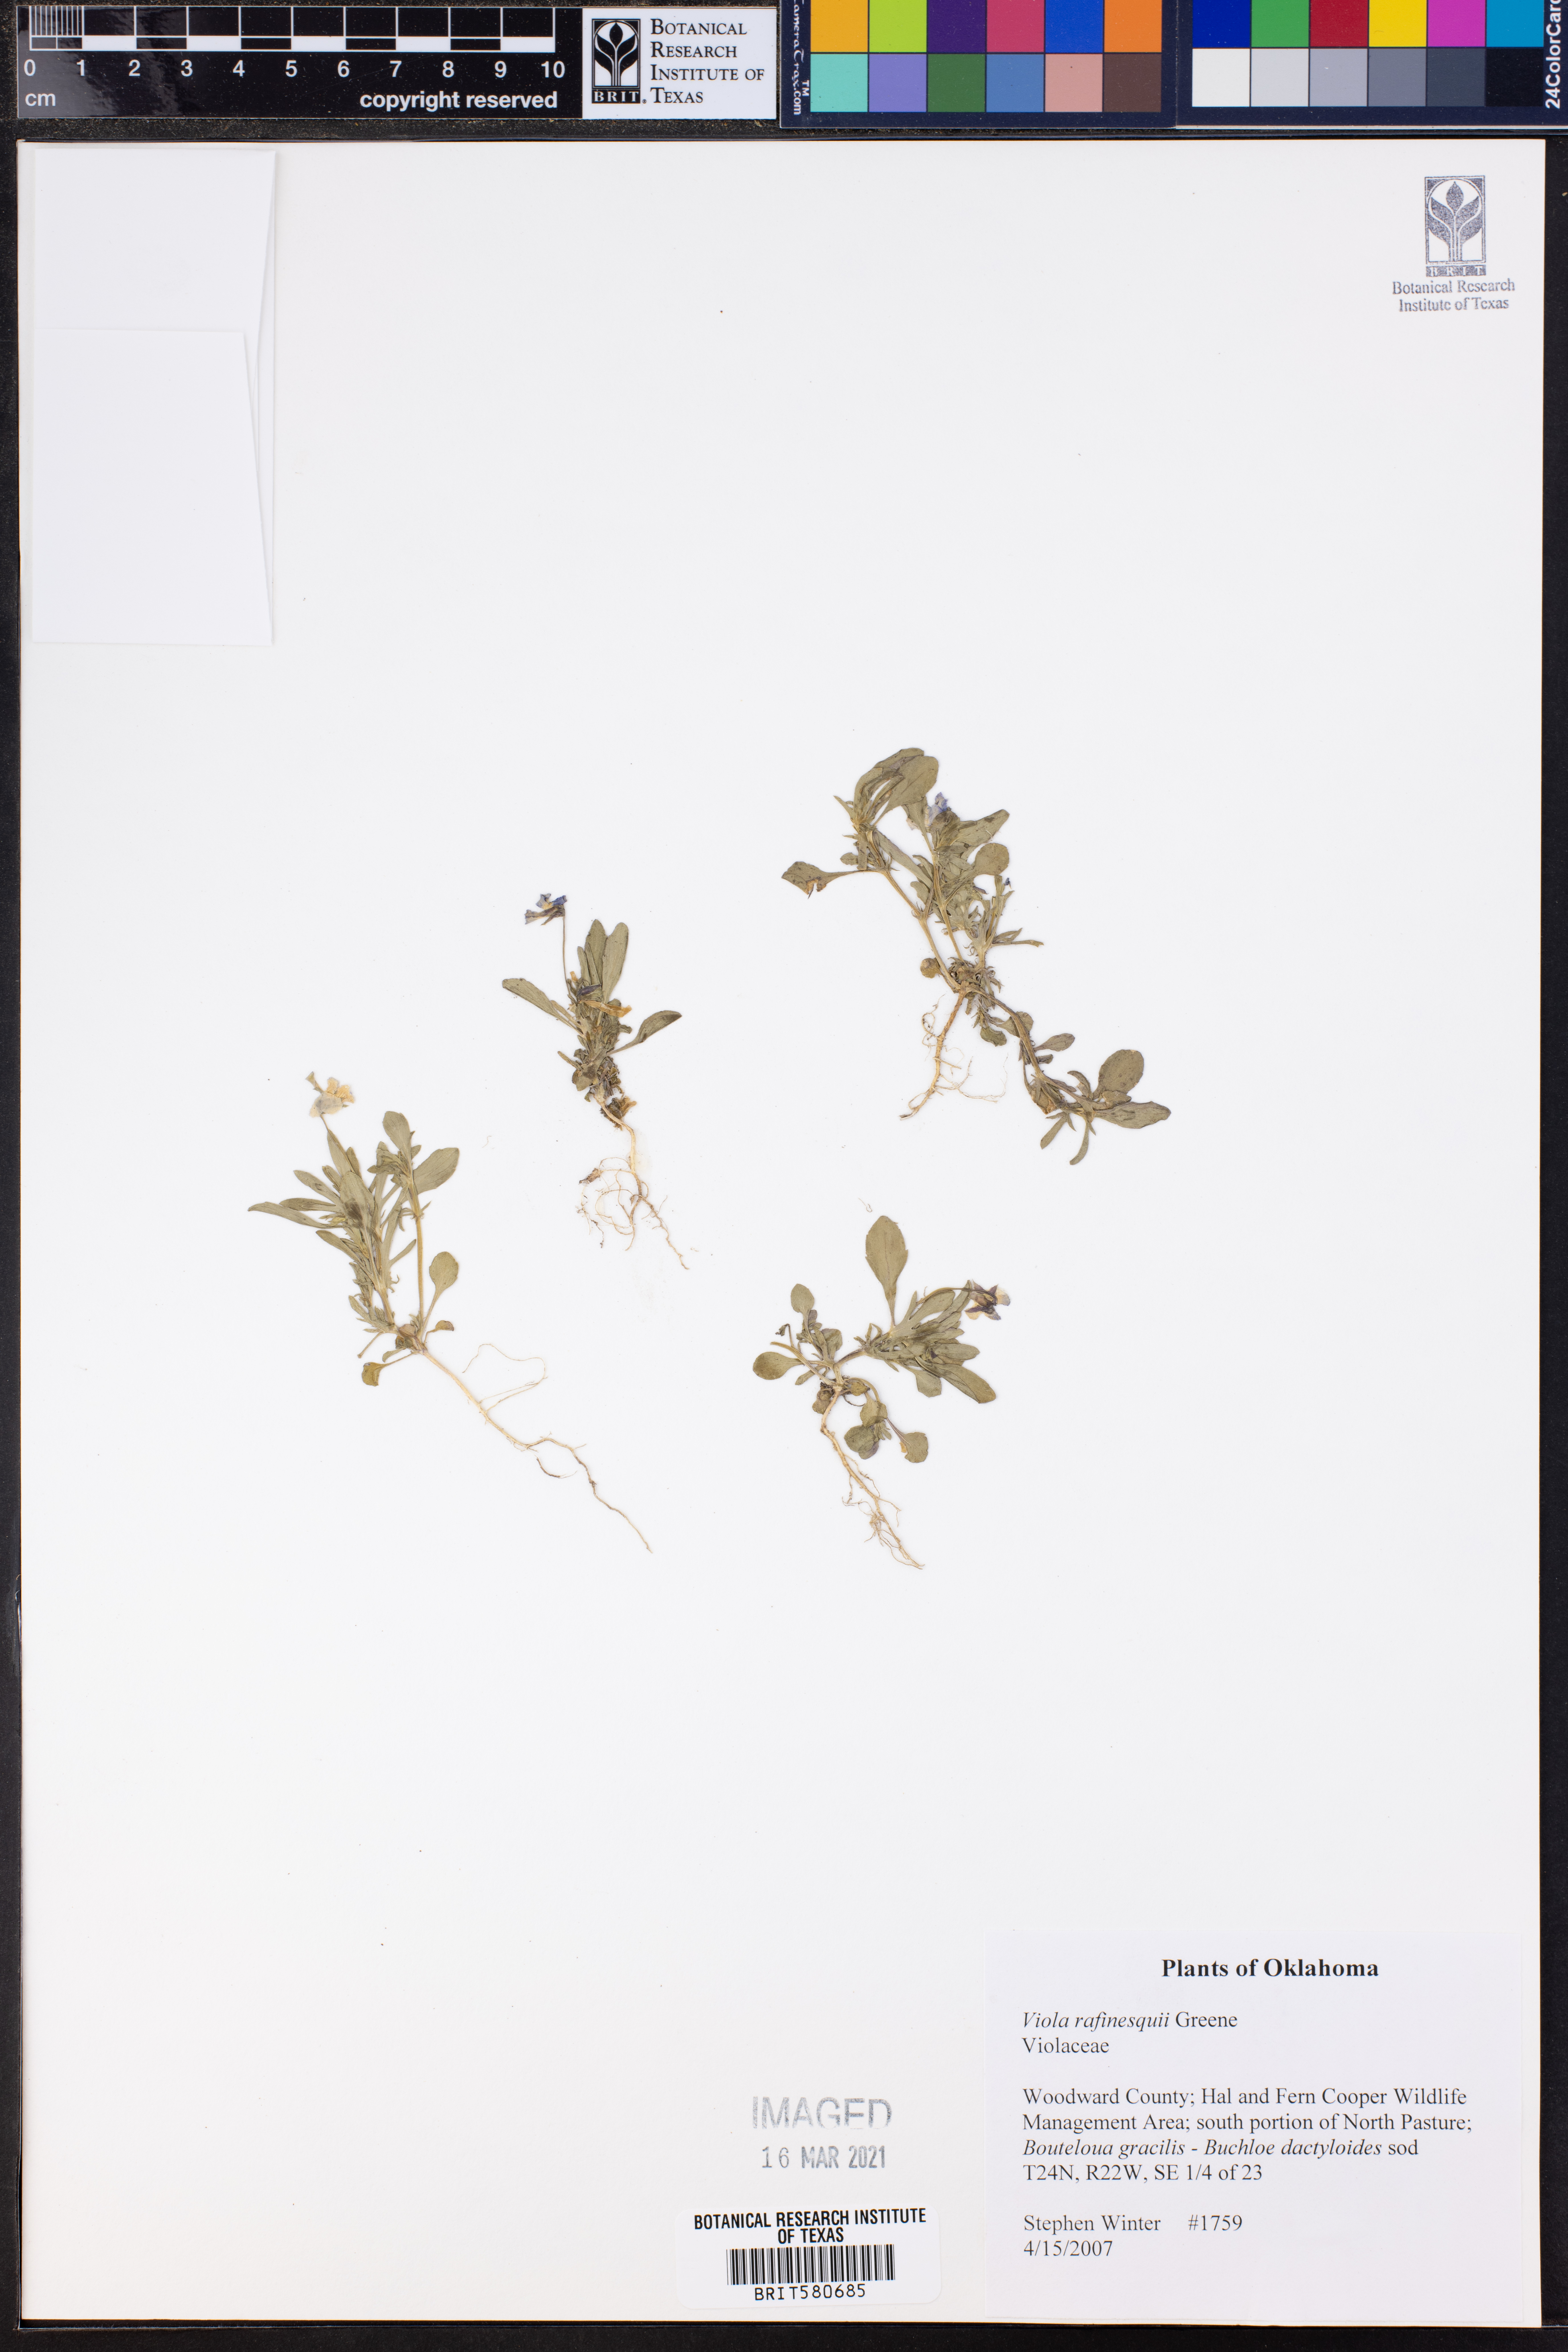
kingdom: Plantae
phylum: Tracheophyta
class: Magnoliopsida
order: Malpighiales
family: Violaceae
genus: Viola
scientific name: Viola rafinesquei
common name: American field pansy
